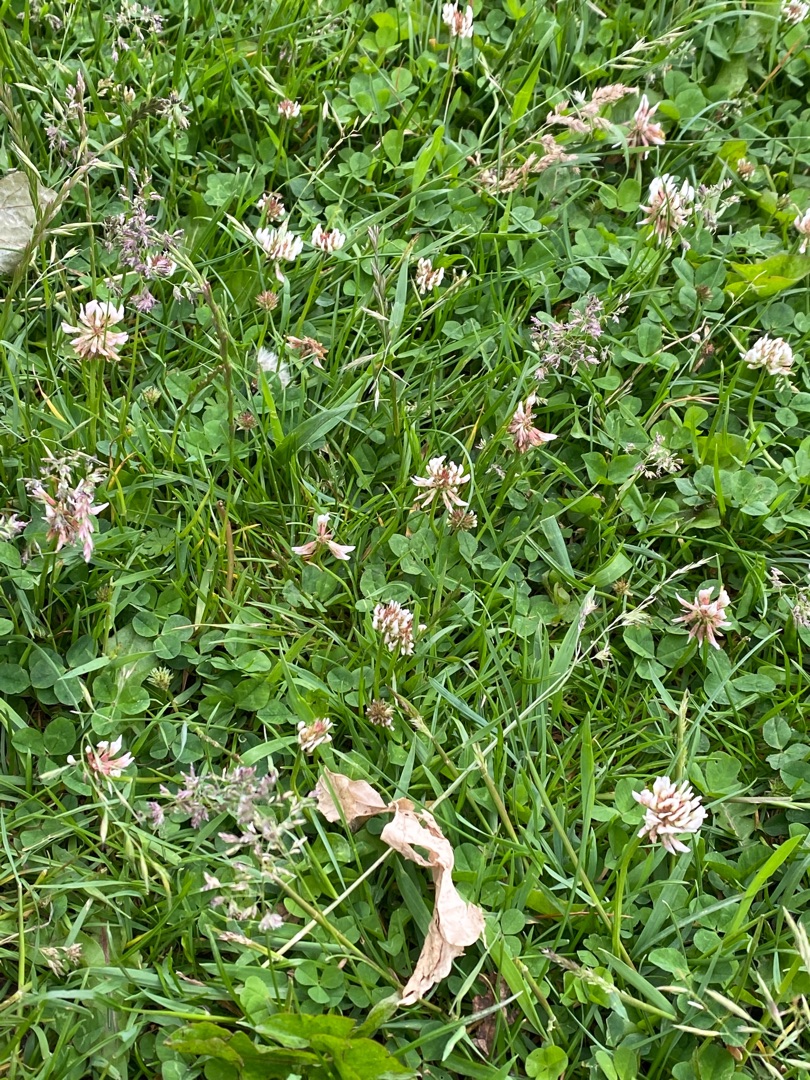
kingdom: Plantae
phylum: Tracheophyta
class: Magnoliopsida
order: Fabales
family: Fabaceae
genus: Trifolium
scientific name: Trifolium repens
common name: Hvid-kløver
